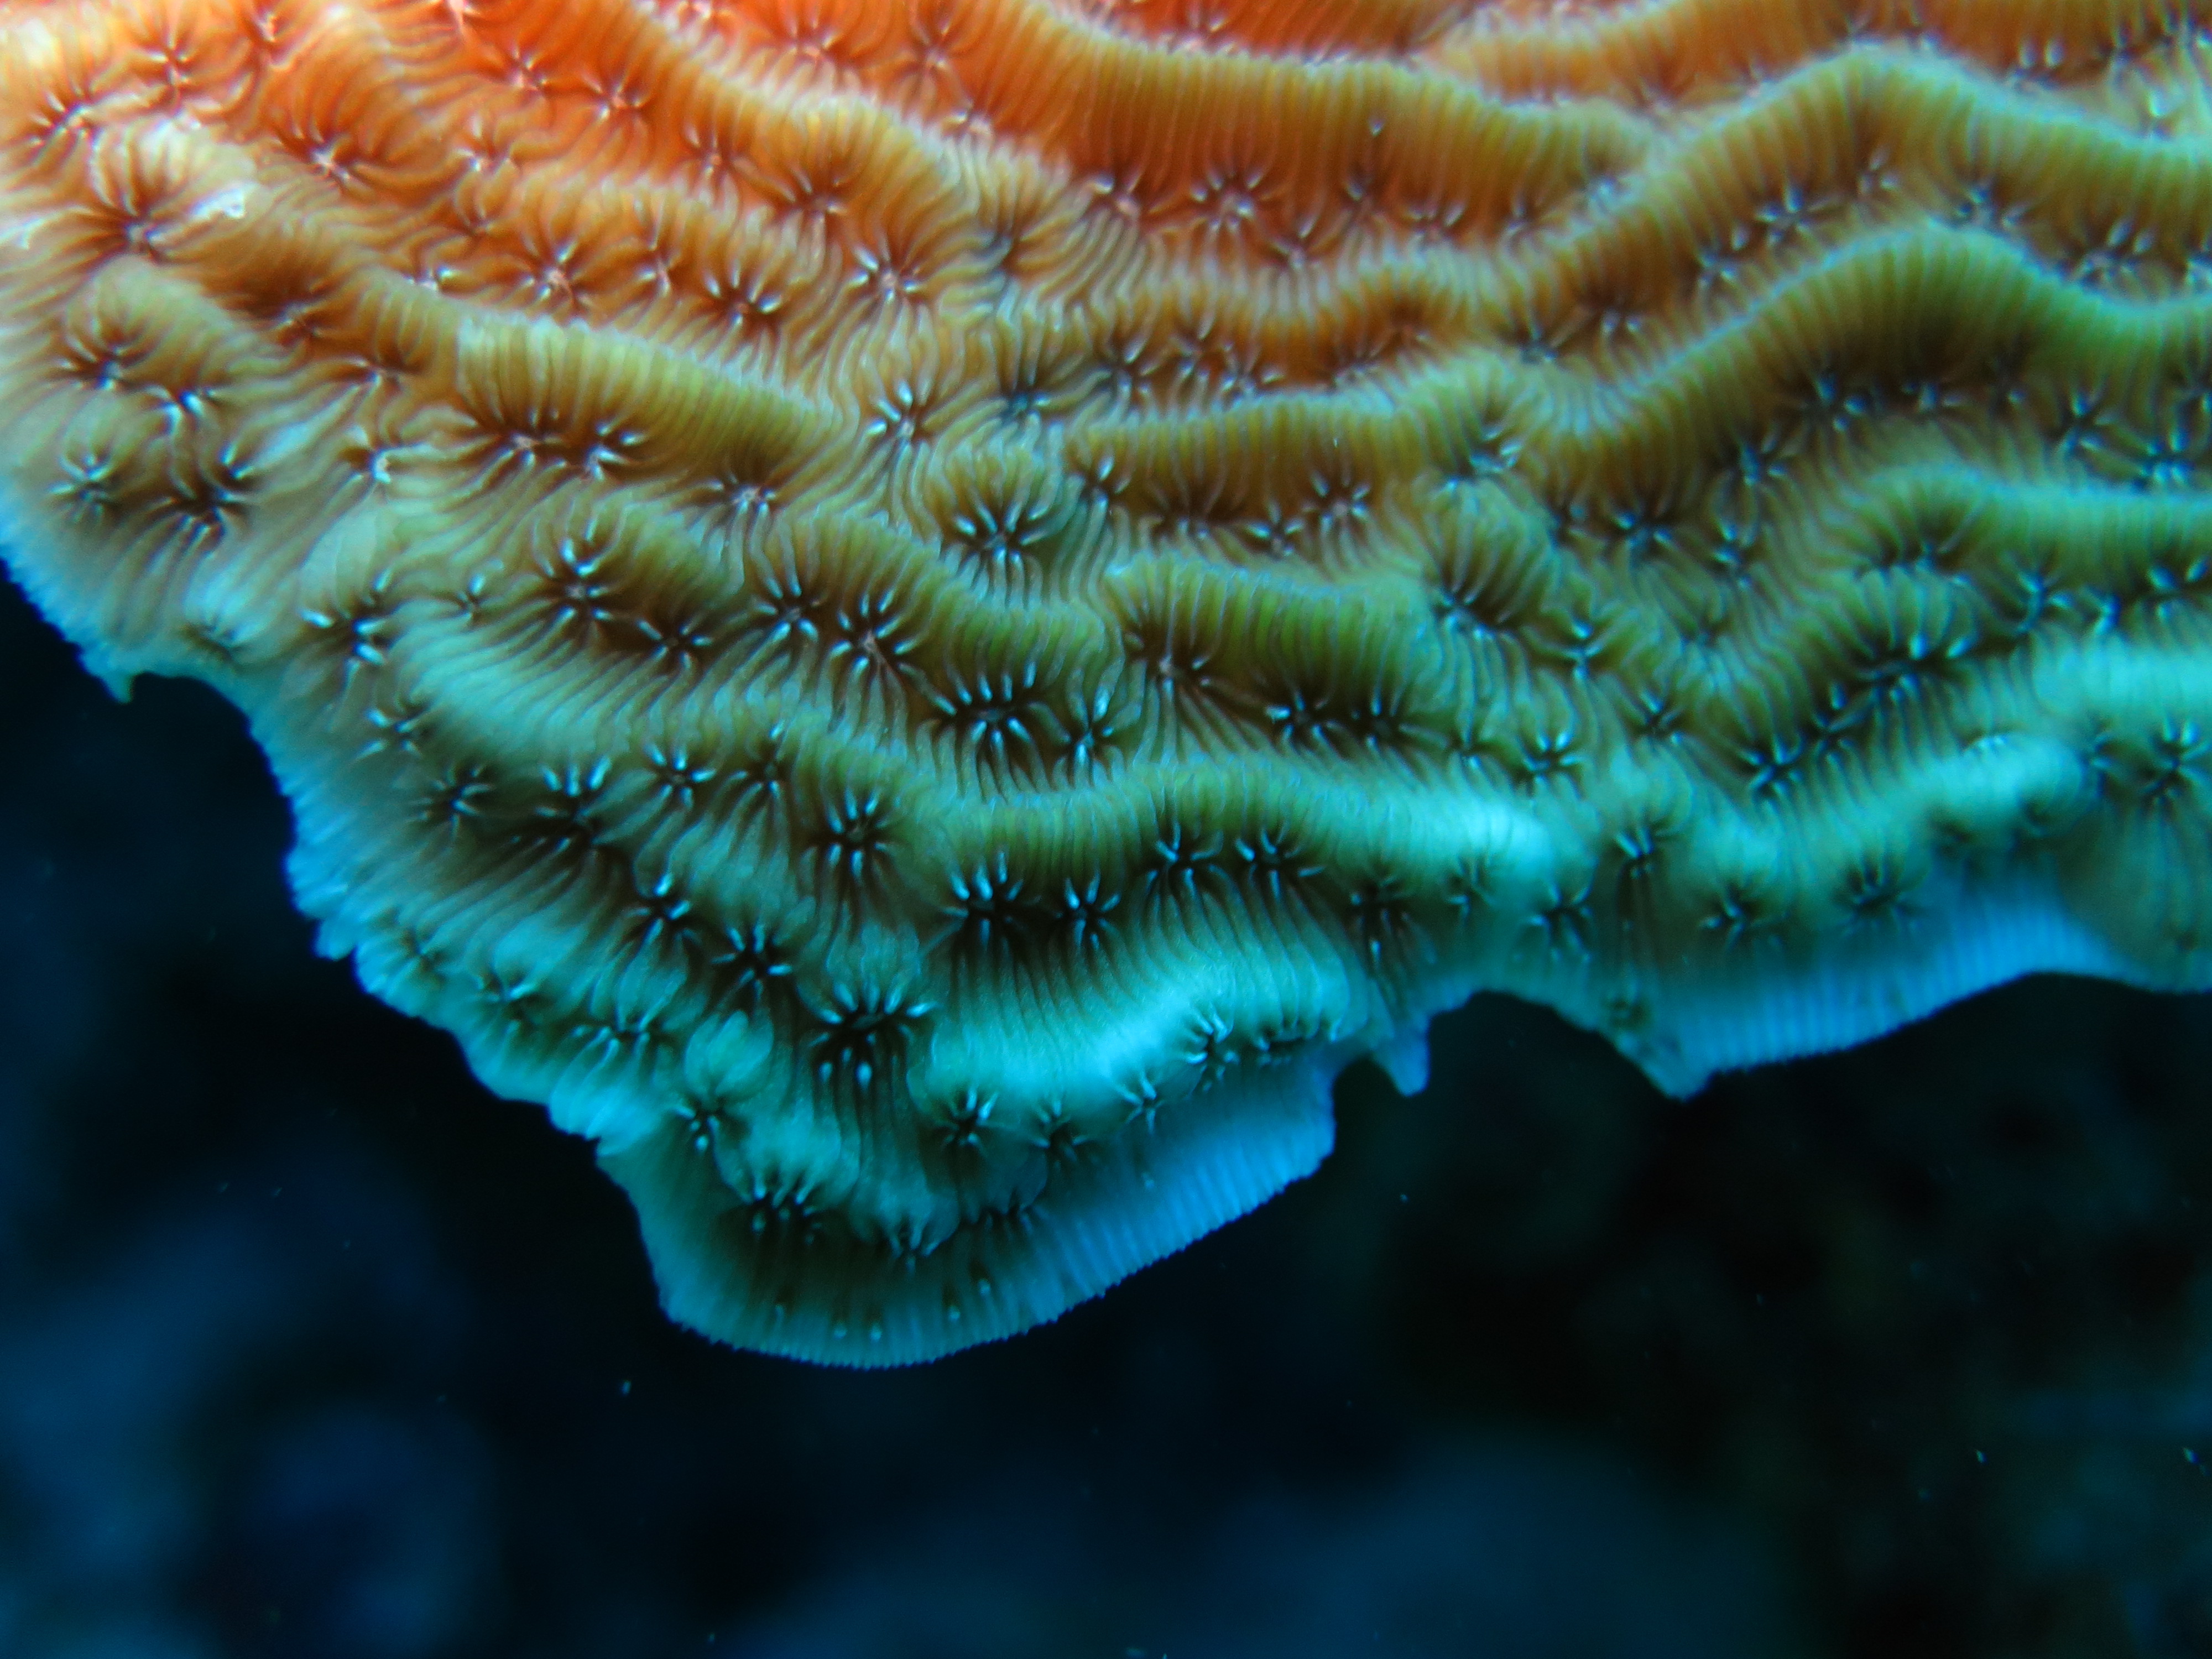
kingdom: Animalia
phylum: Cnidaria
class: Anthozoa
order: Scleractinia
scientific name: Scleractinia
